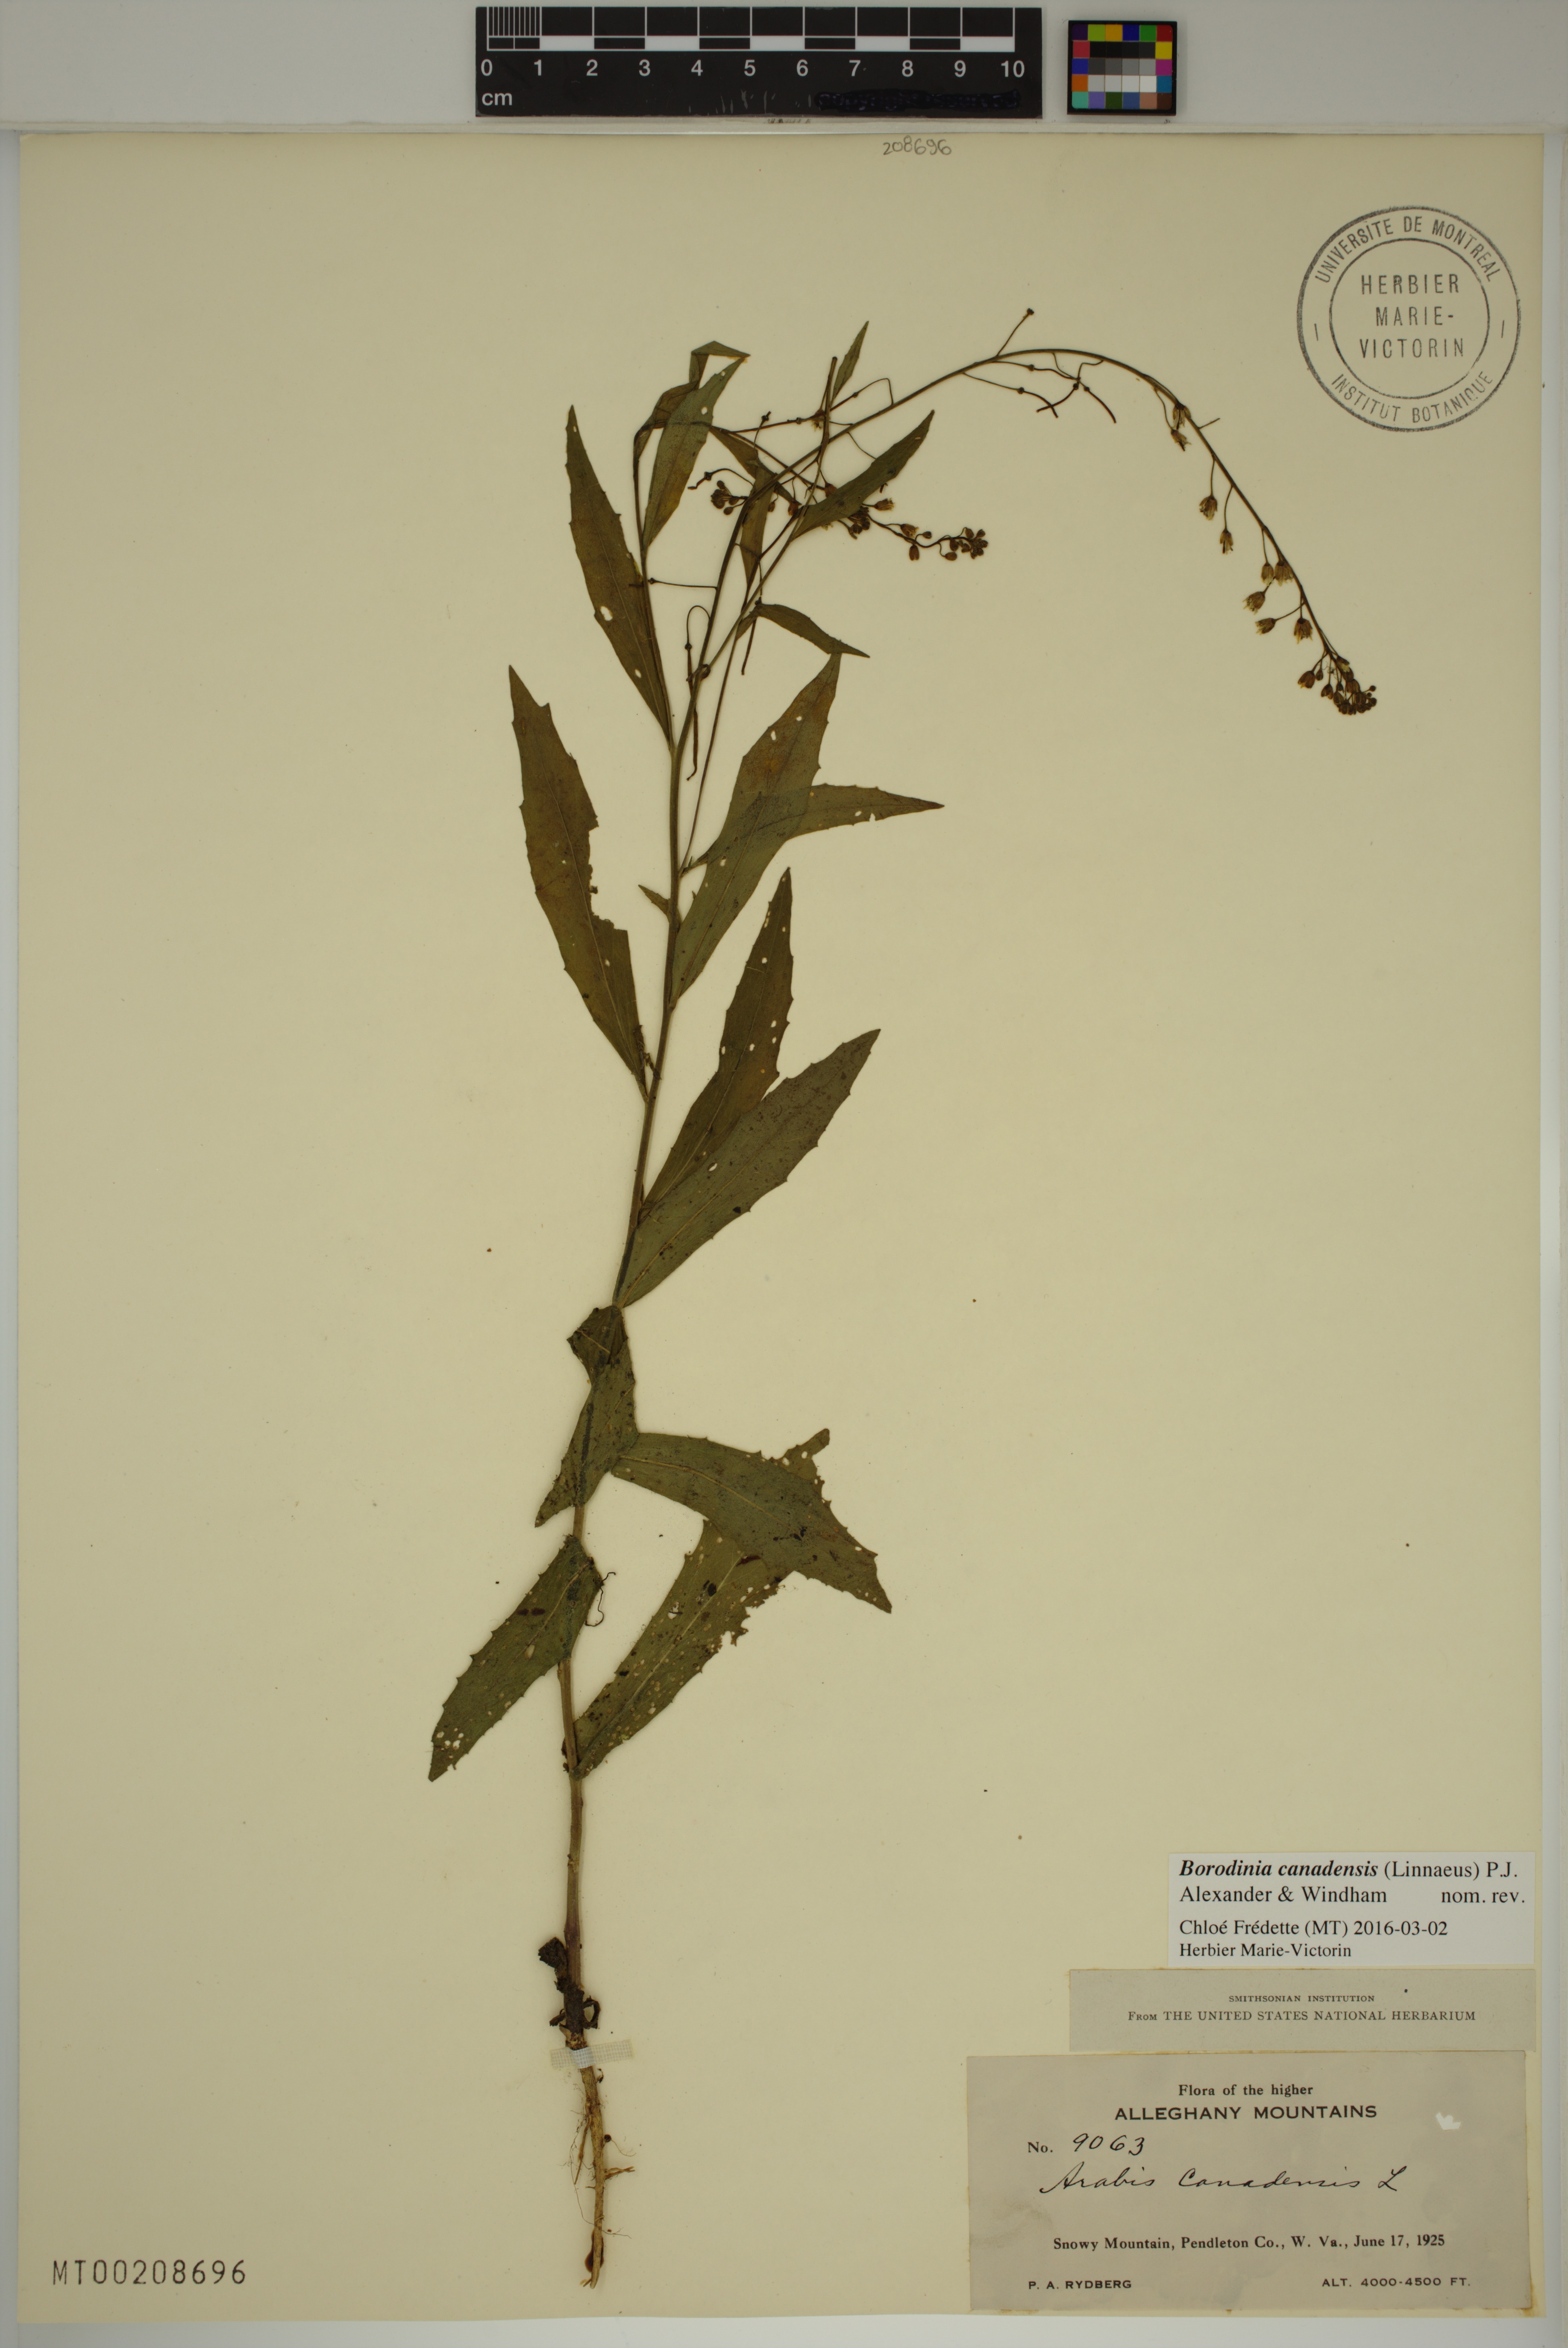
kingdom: Plantae
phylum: Tracheophyta
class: Magnoliopsida
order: Brassicales
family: Brassicaceae
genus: Borodinia
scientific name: Borodinia canadensis
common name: Sicklepod
